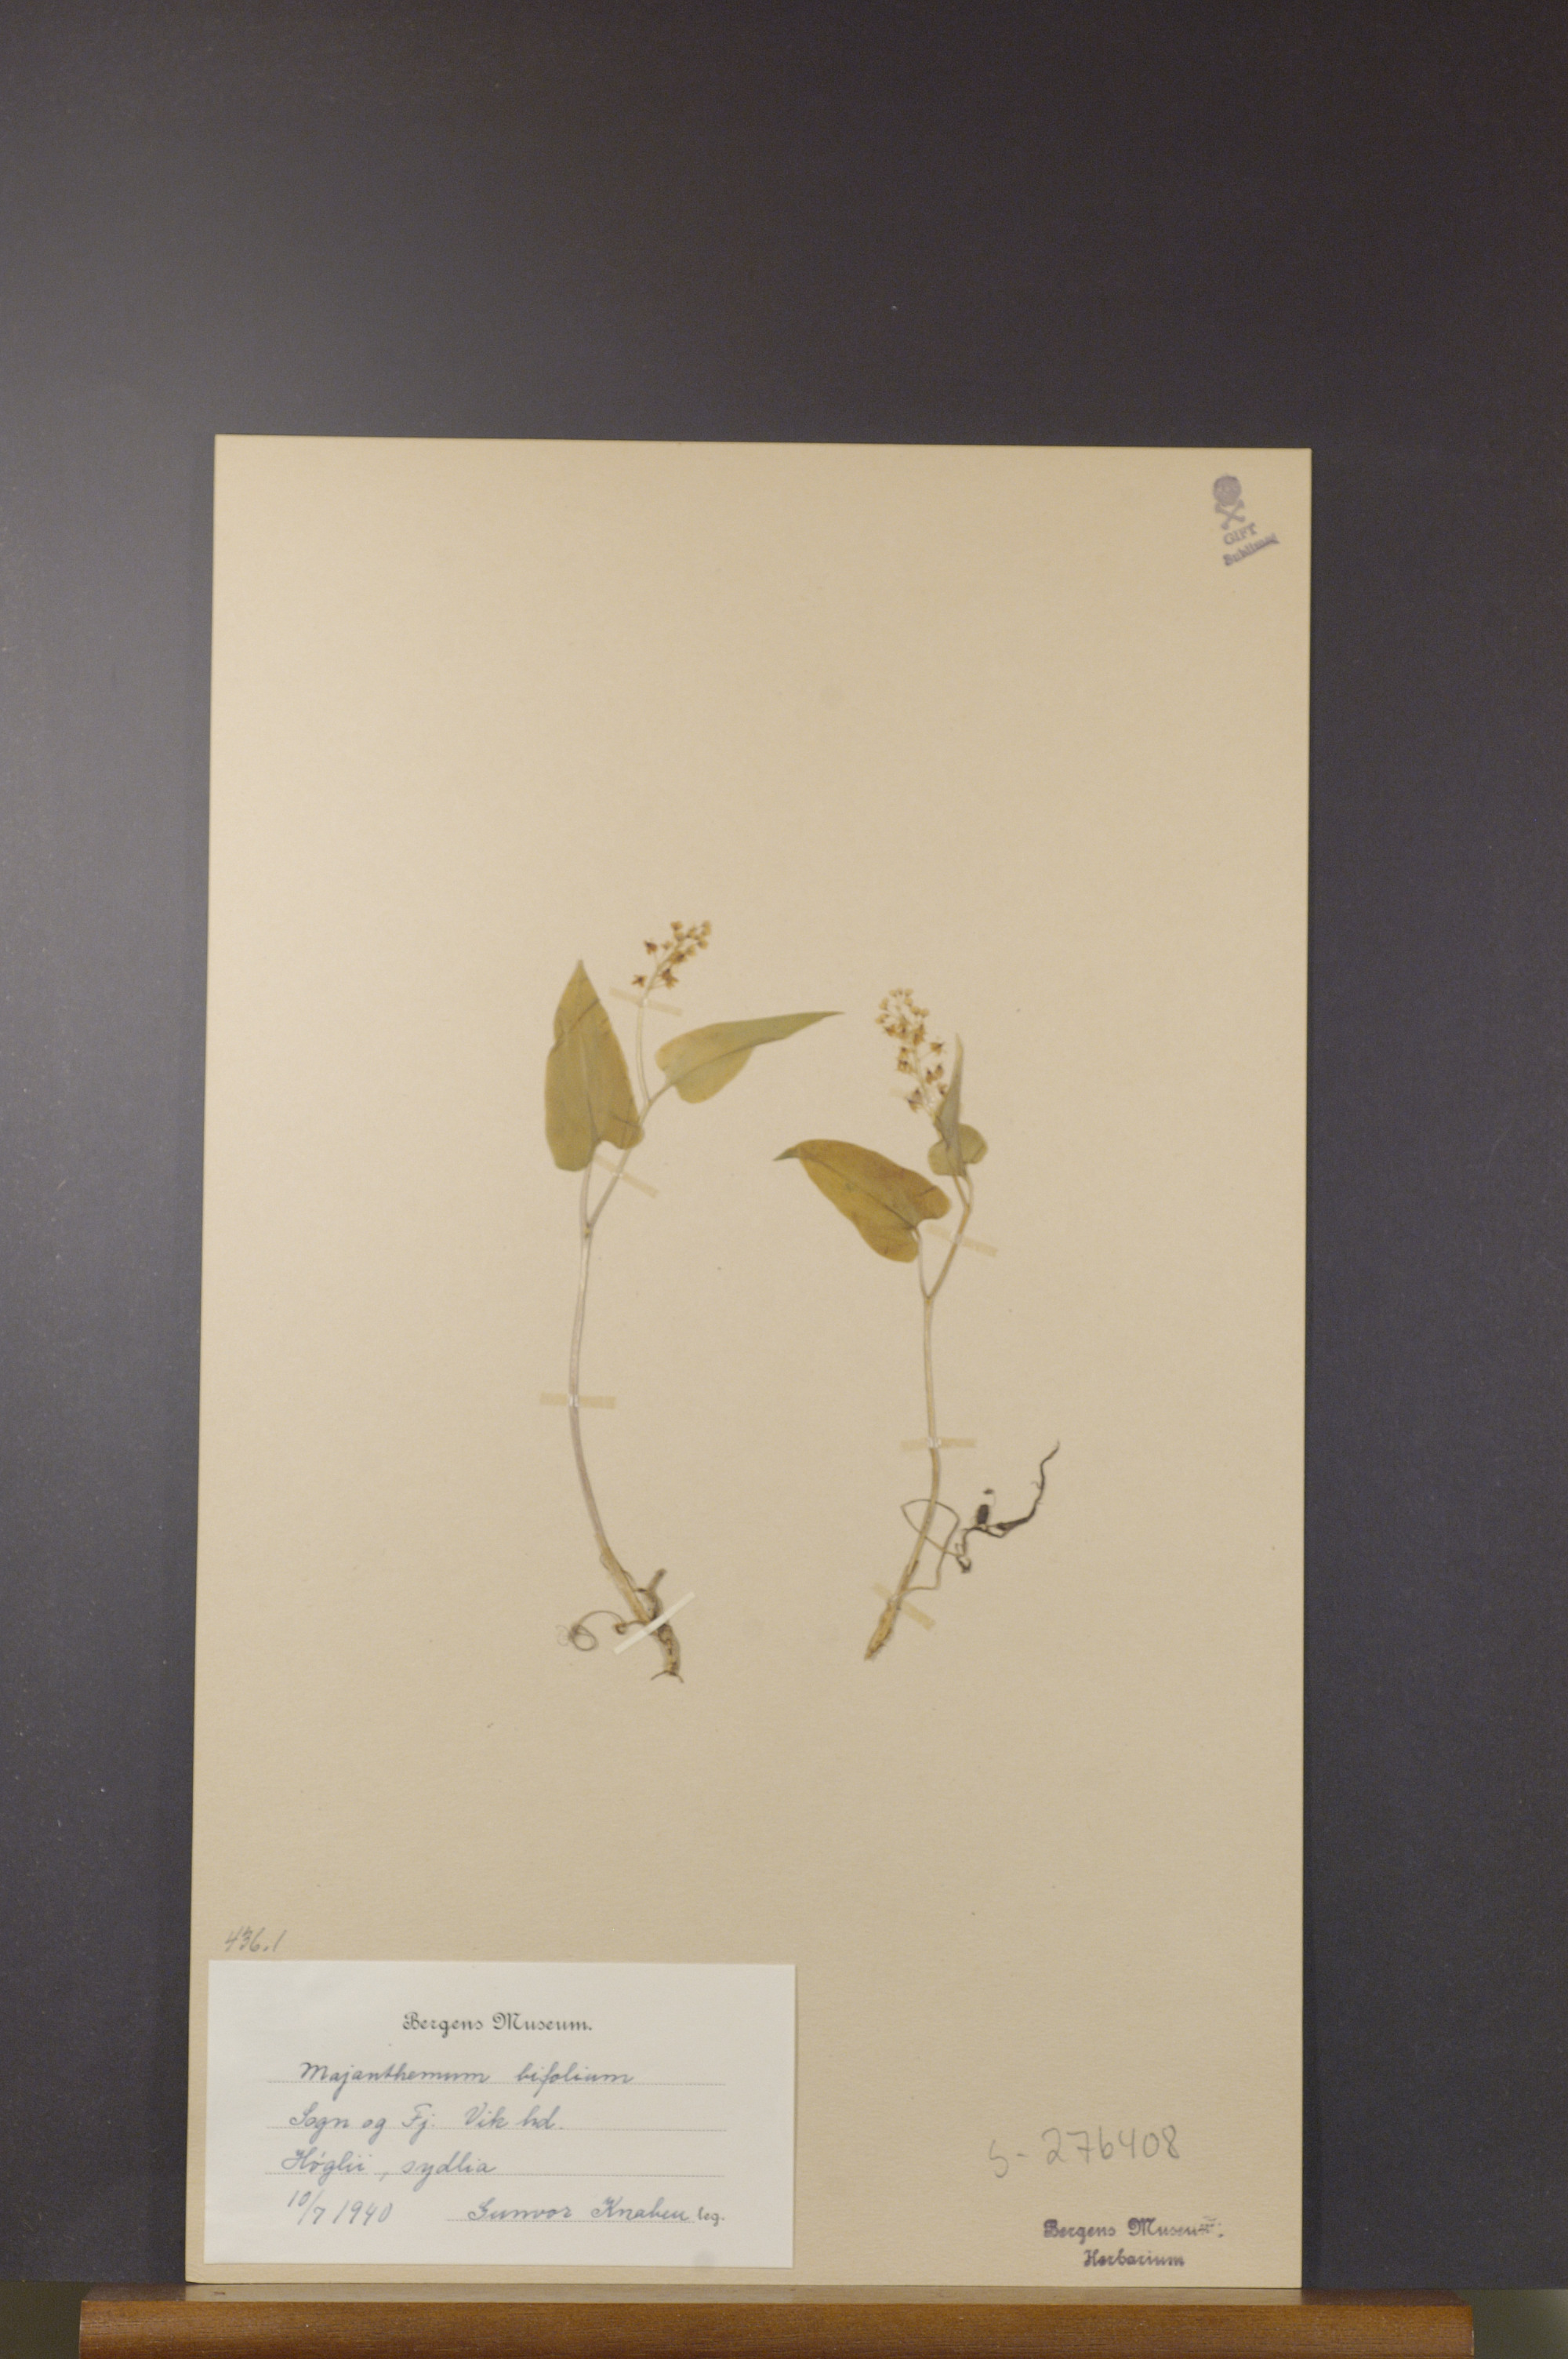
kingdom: Plantae
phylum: Tracheophyta
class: Liliopsida
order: Asparagales
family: Asparagaceae
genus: Maianthemum
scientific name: Maianthemum bifolium
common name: May lily
